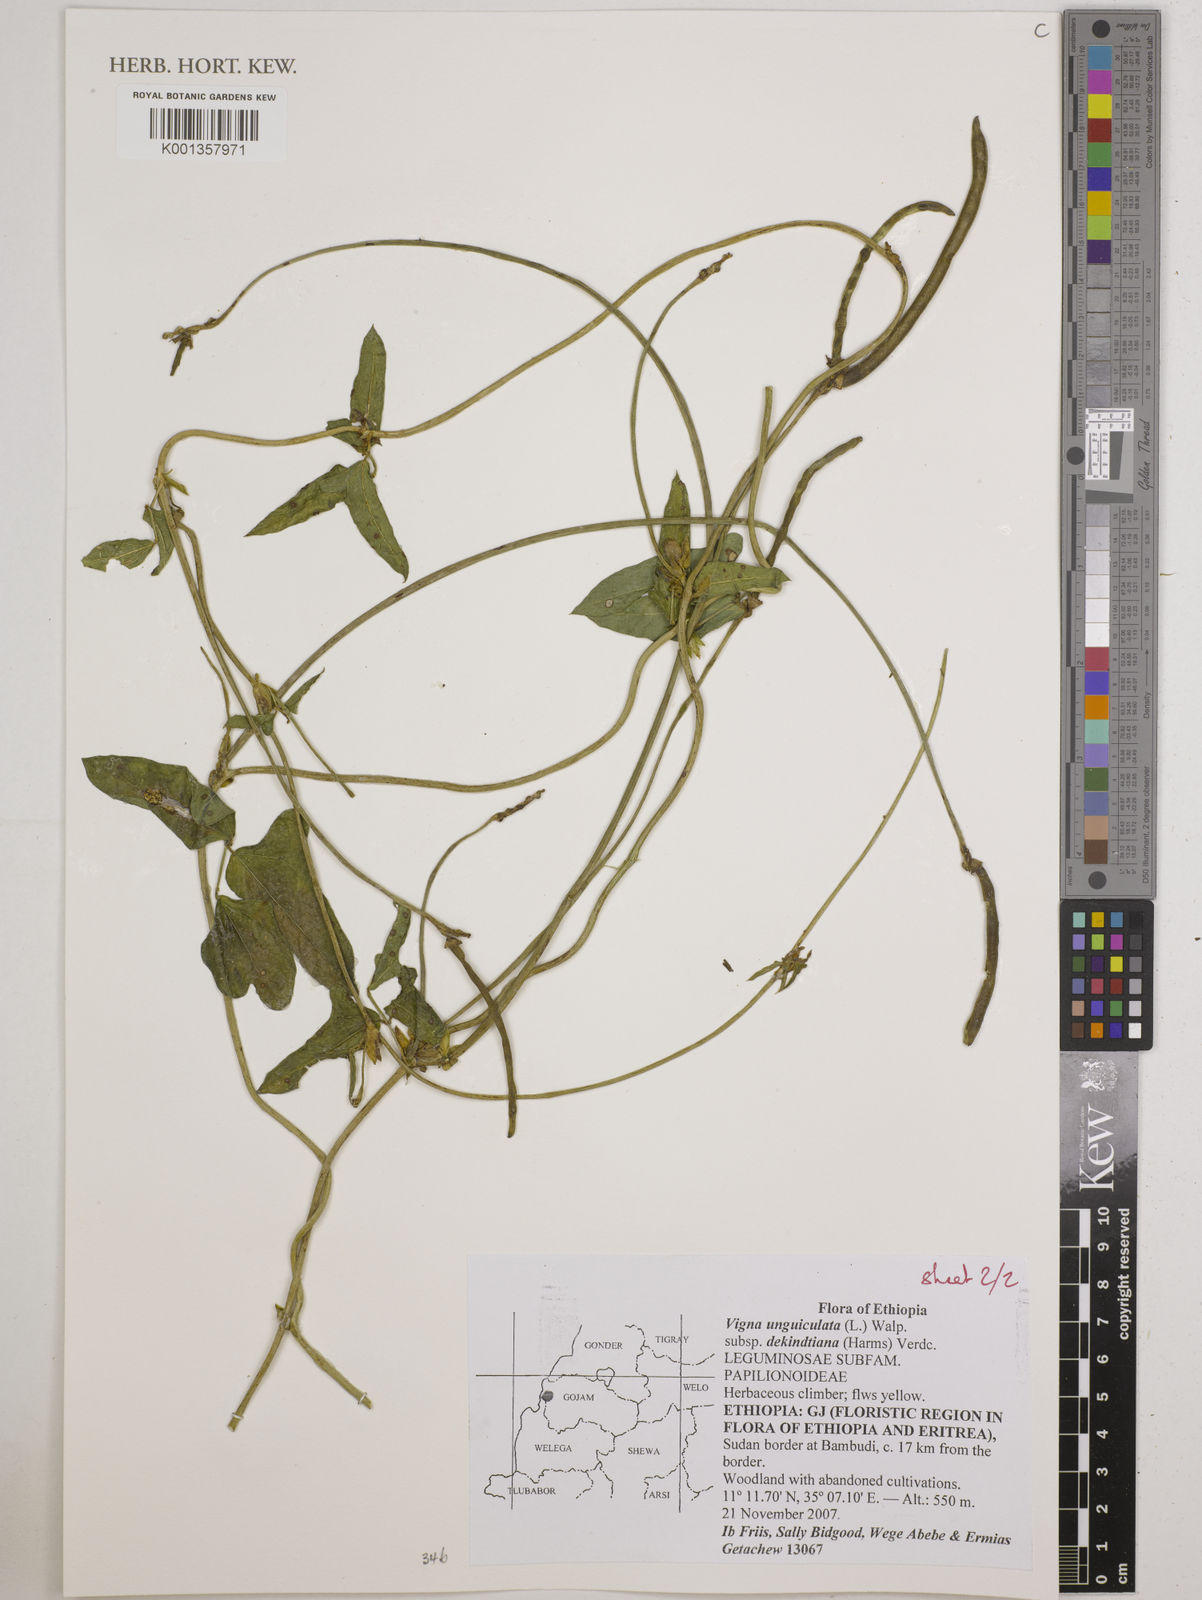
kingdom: Plantae
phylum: Tracheophyta
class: Magnoliopsida
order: Fabales
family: Fabaceae
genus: Vigna
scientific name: Vigna
